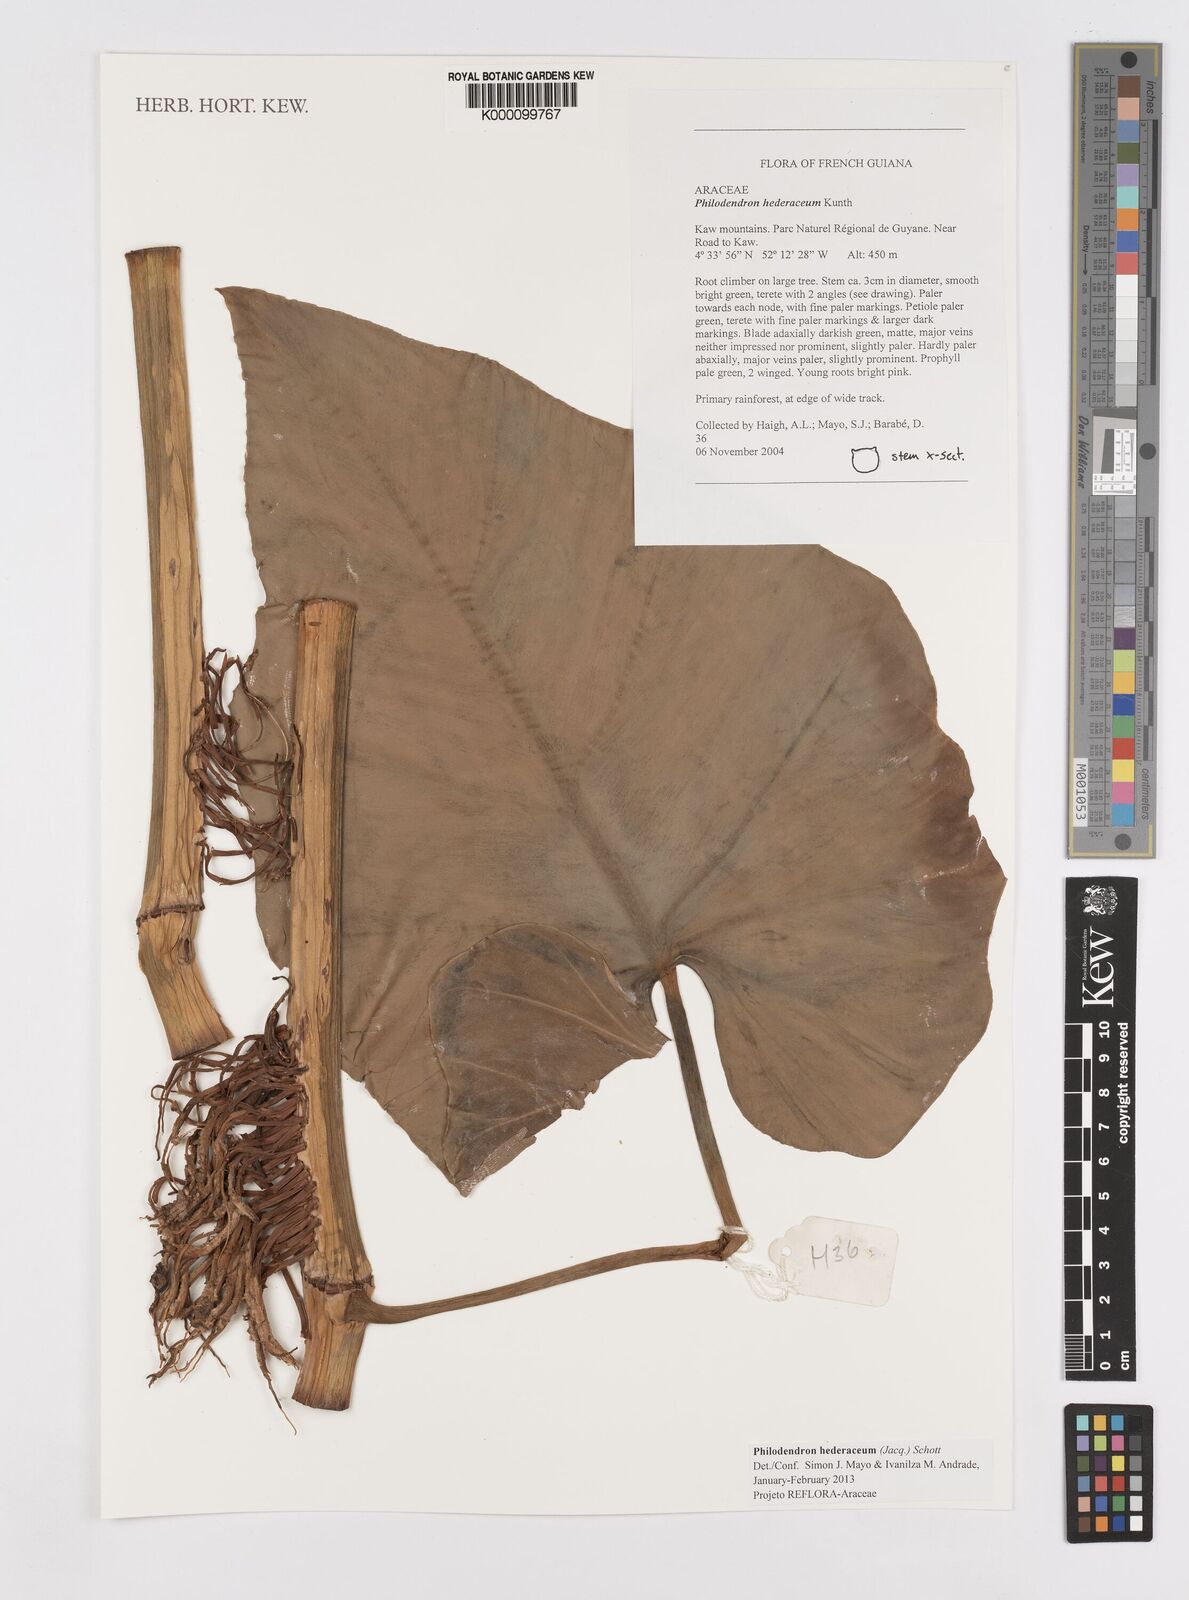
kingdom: Plantae
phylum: Tracheophyta
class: Liliopsida
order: Alismatales
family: Araceae
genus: Philodendron
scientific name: Philodendron
